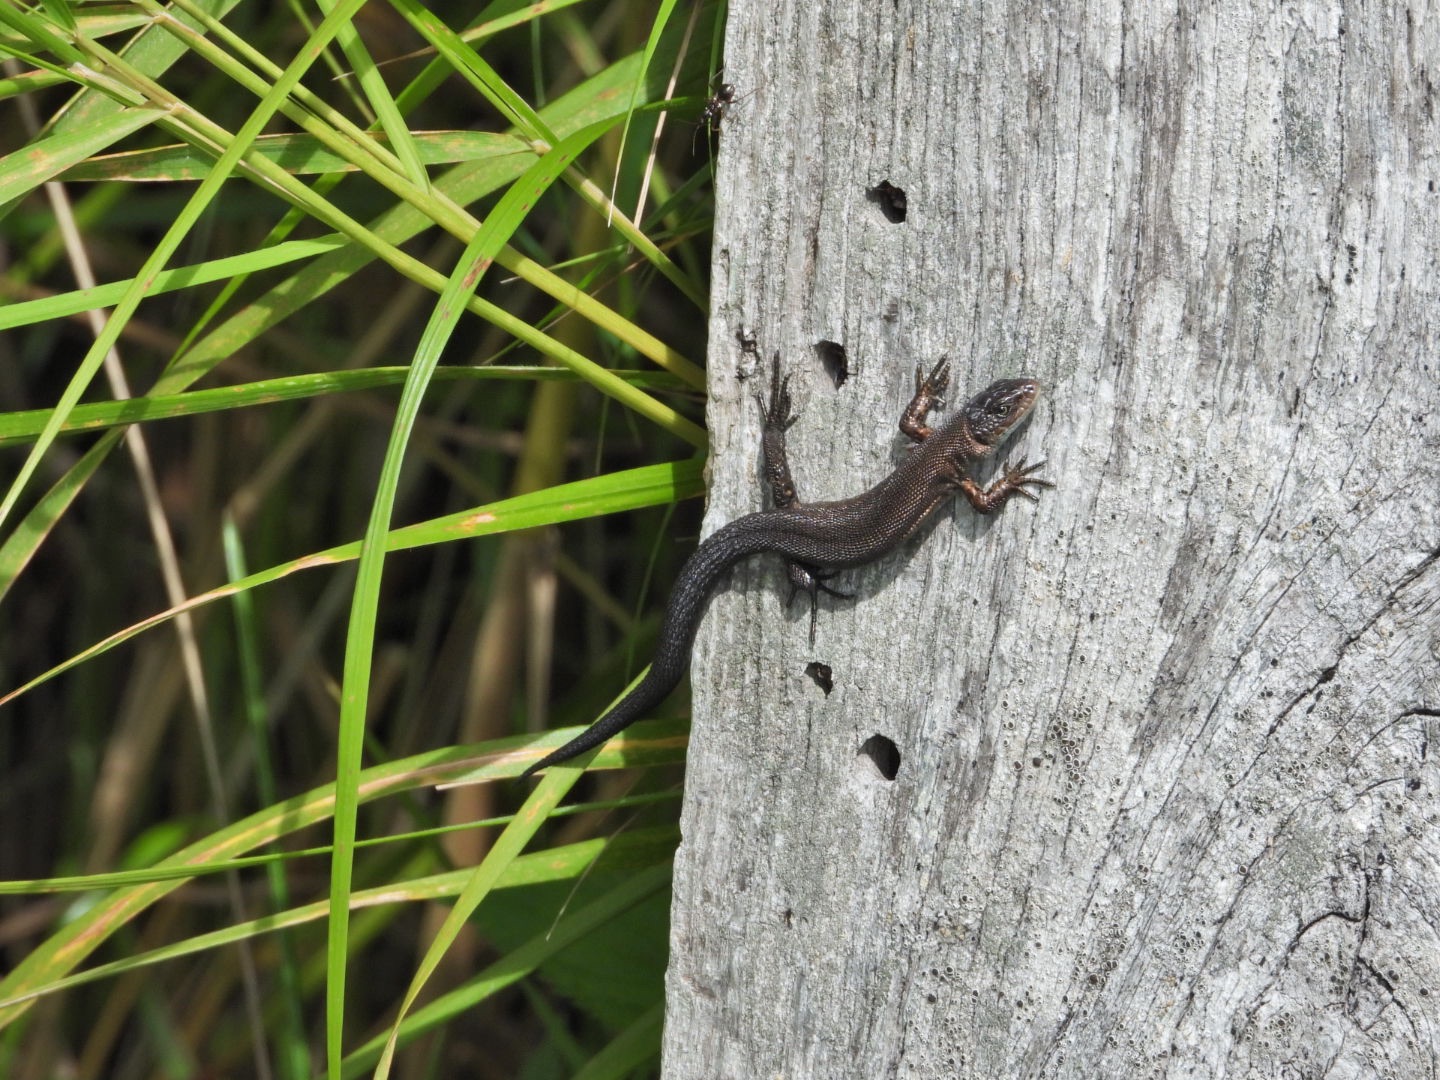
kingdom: Animalia
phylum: Chordata
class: Squamata
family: Lacertidae
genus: Zootoca
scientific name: Zootoca vivipara
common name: Skovfirben
